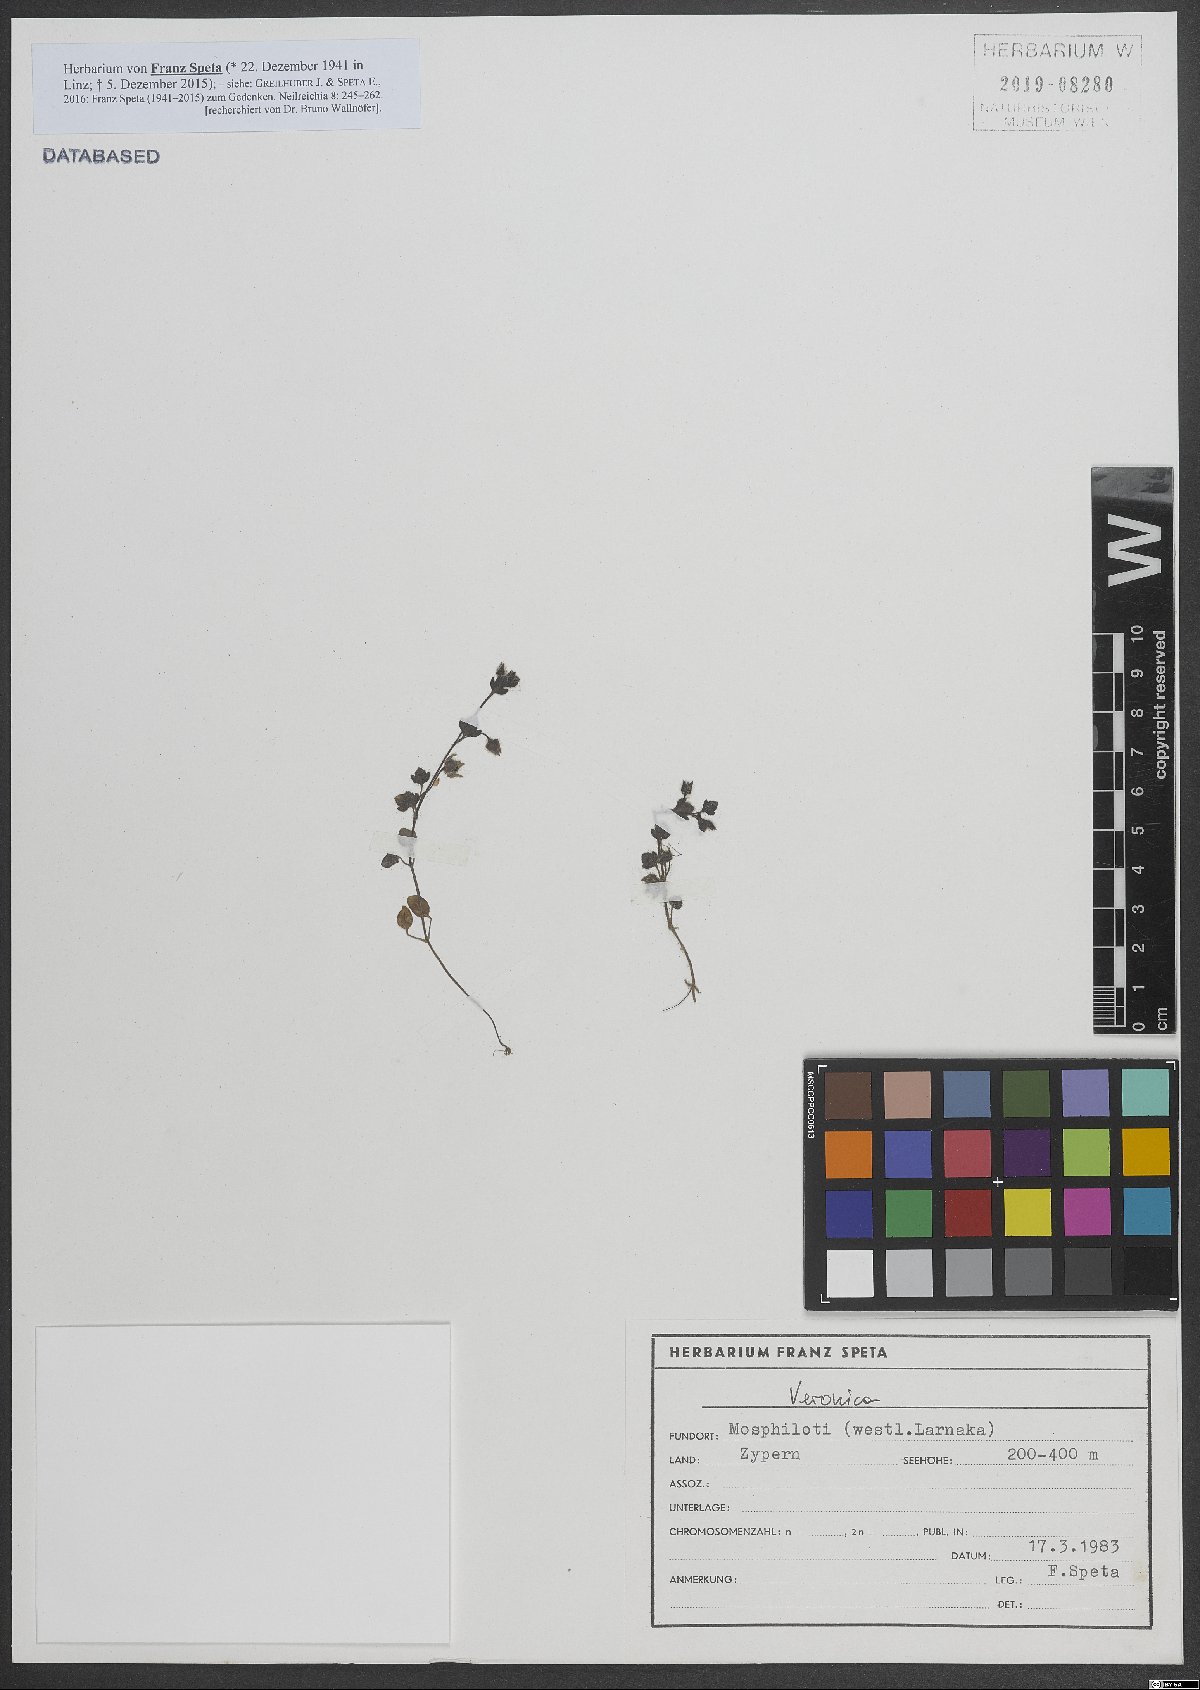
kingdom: Plantae
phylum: Tracheophyta
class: Magnoliopsida
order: Lamiales
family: Plantaginaceae
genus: Veronica
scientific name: Veronica
